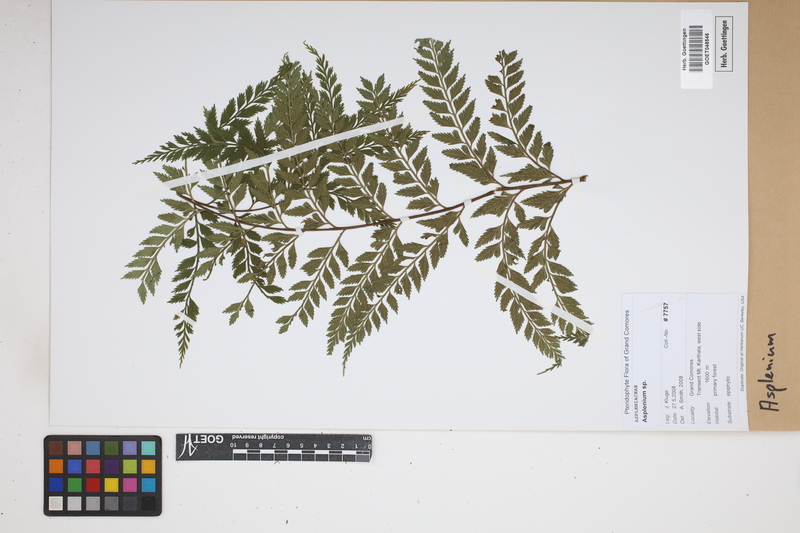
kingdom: Plantae
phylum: Tracheophyta
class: Polypodiopsida
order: Polypodiales
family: Aspleniaceae
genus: Asplenium
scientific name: Asplenium
